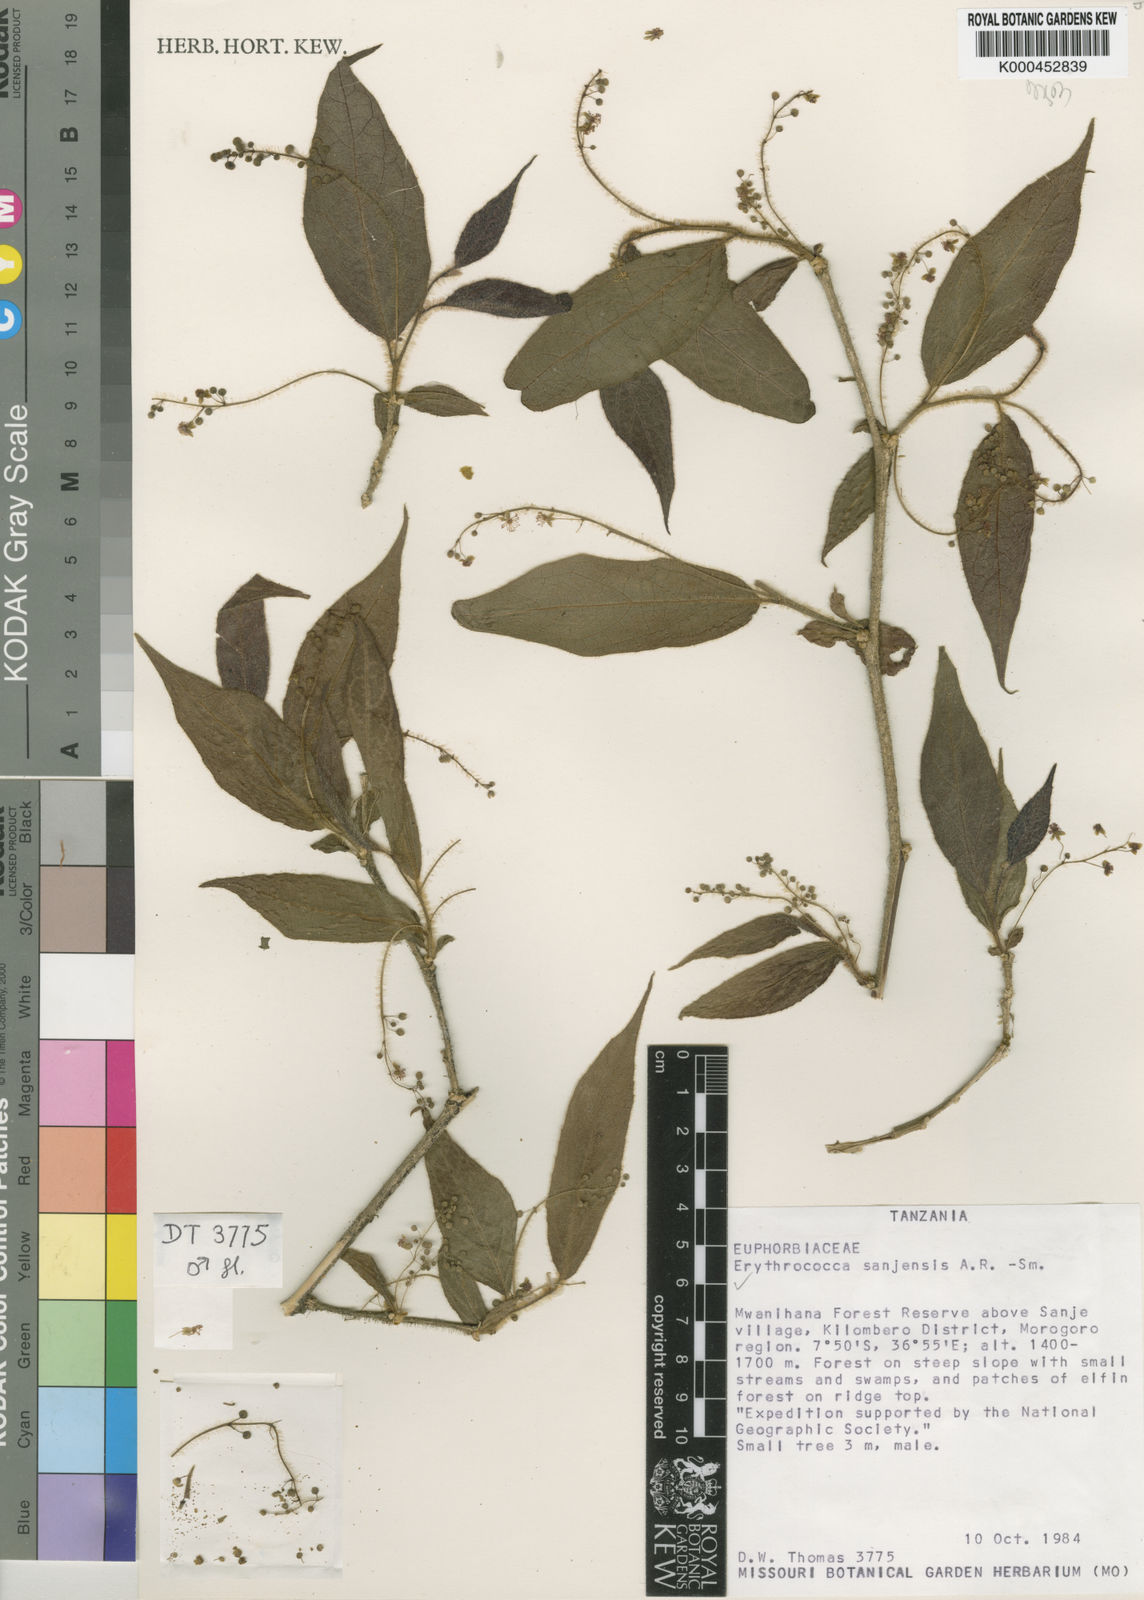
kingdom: Plantae
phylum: Tracheophyta
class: Magnoliopsida
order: Malpighiales
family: Euphorbiaceae
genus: Erythrococca
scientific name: Erythrococca
